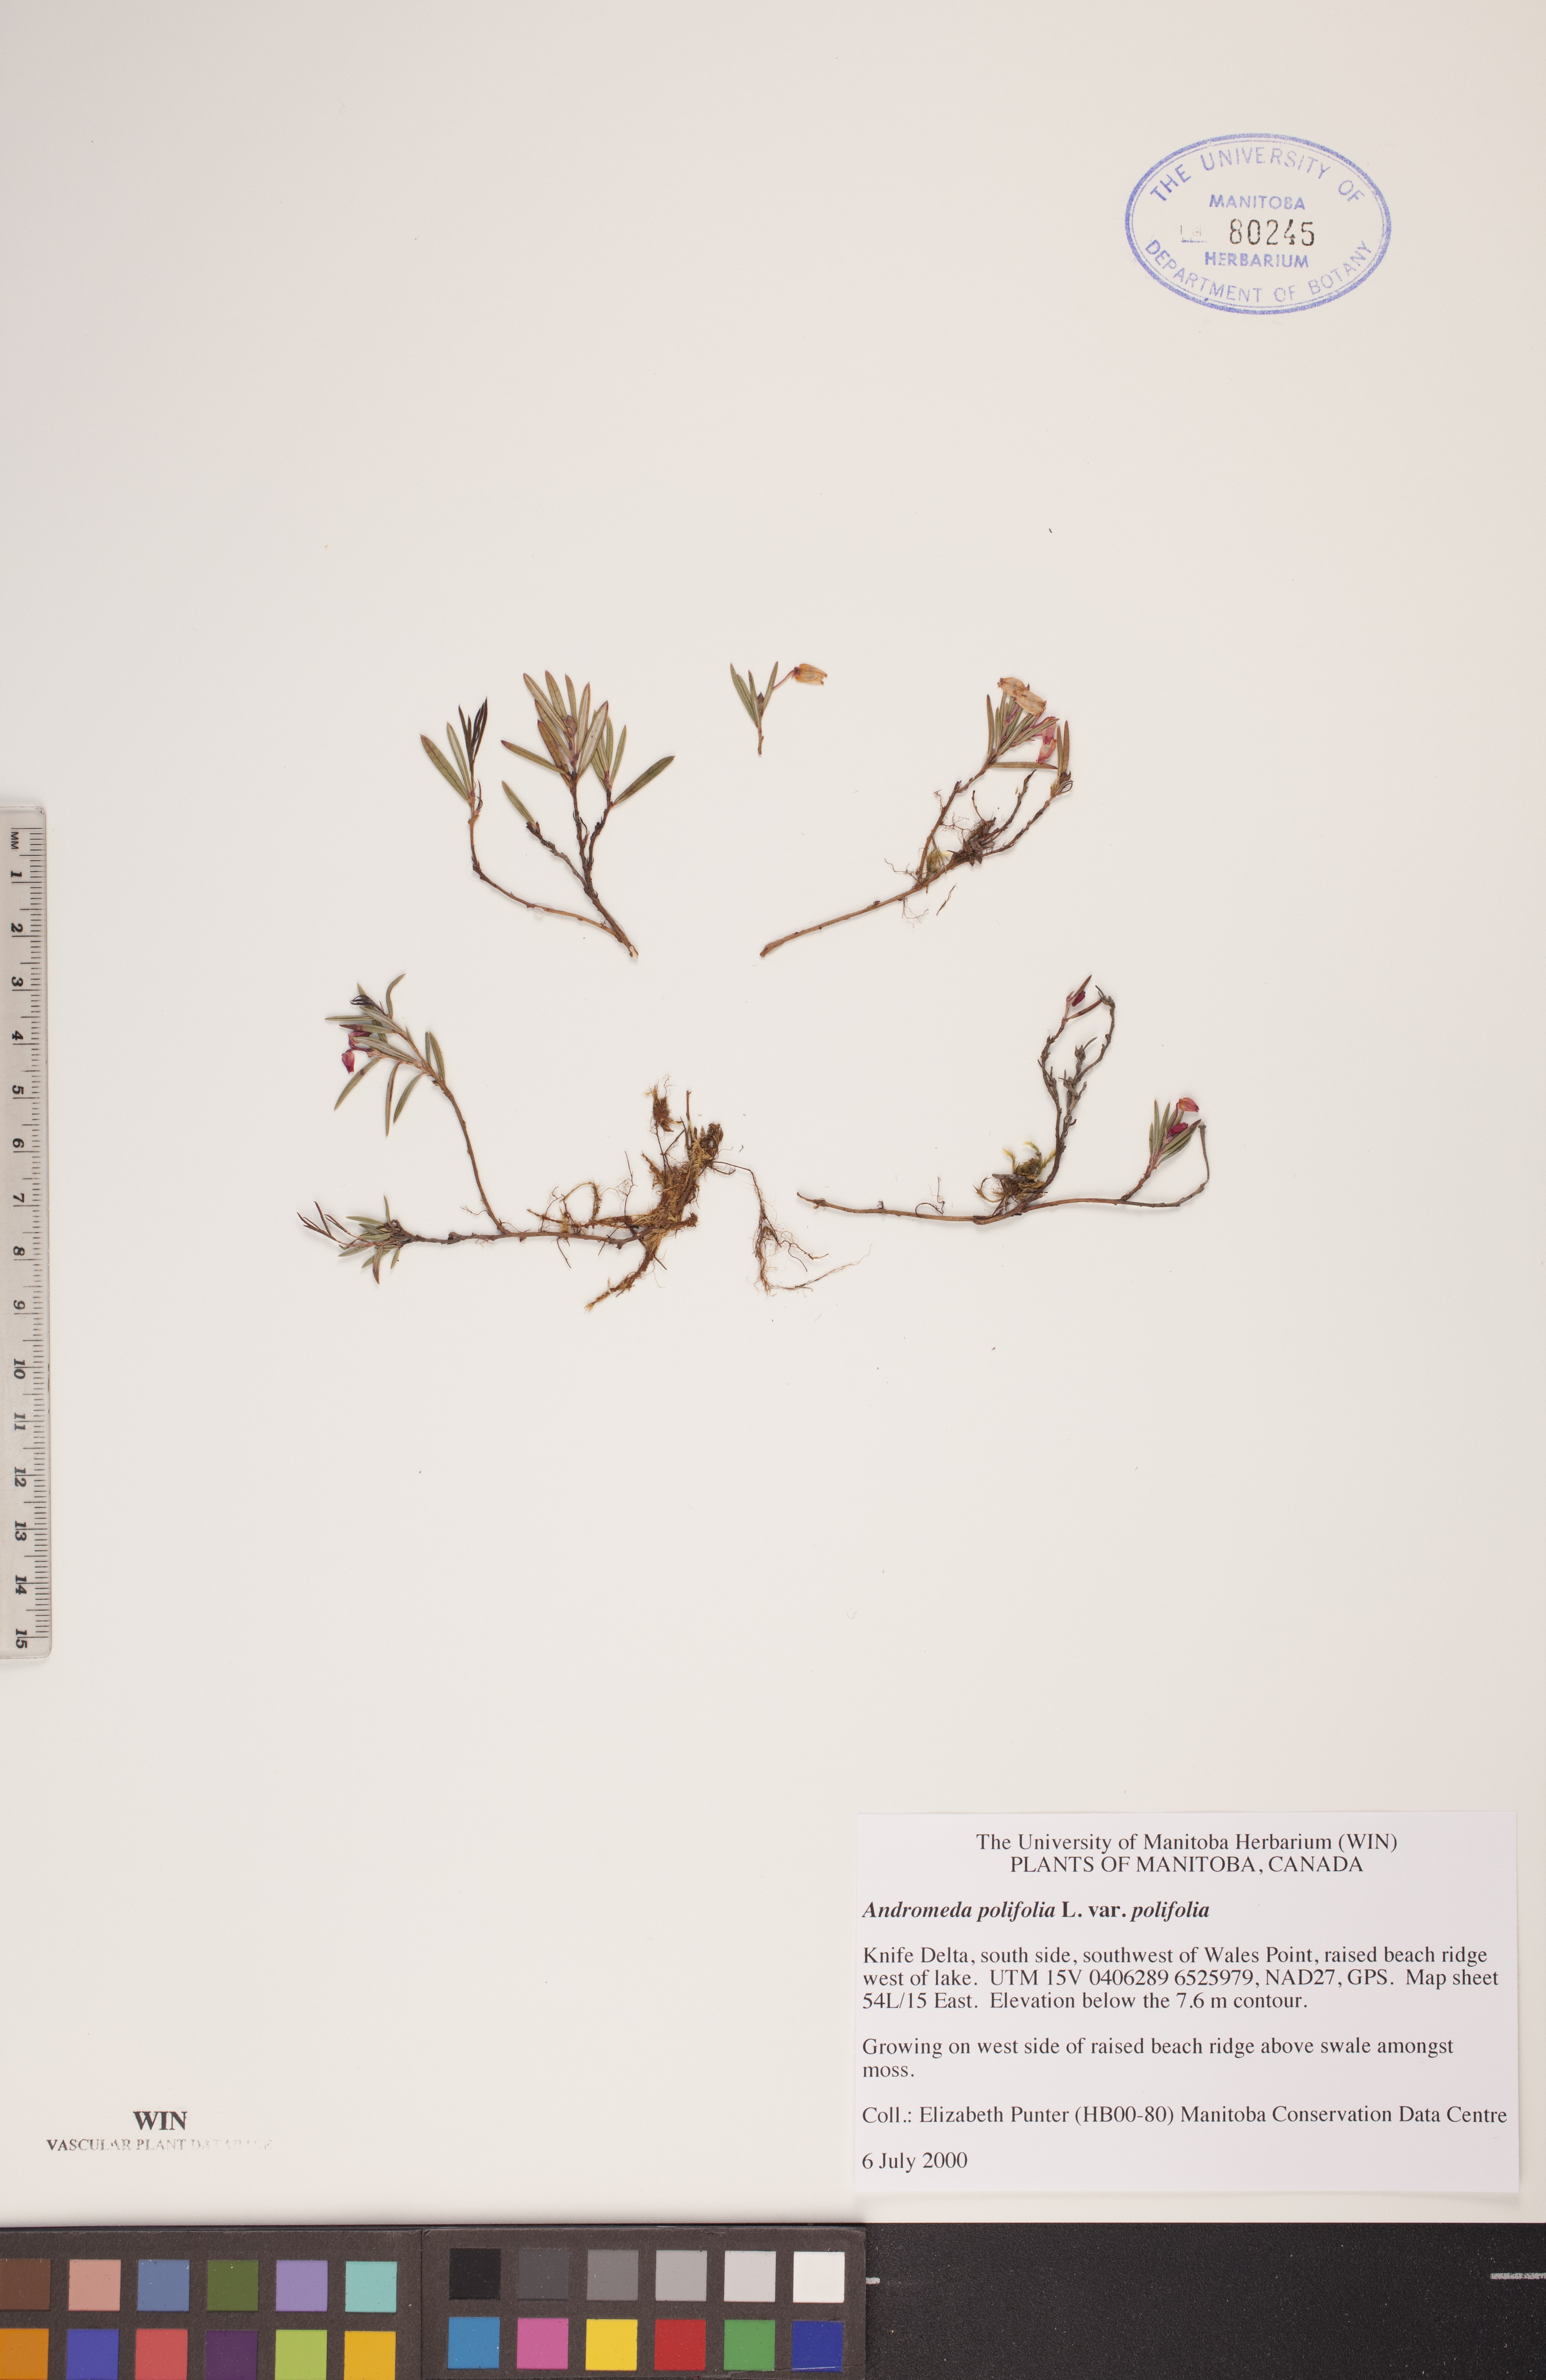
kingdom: Plantae
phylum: Tracheophyta
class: Magnoliopsida
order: Ericales
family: Ericaceae
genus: Andromeda
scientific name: Andromeda polifolia
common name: Bog-rosemary
